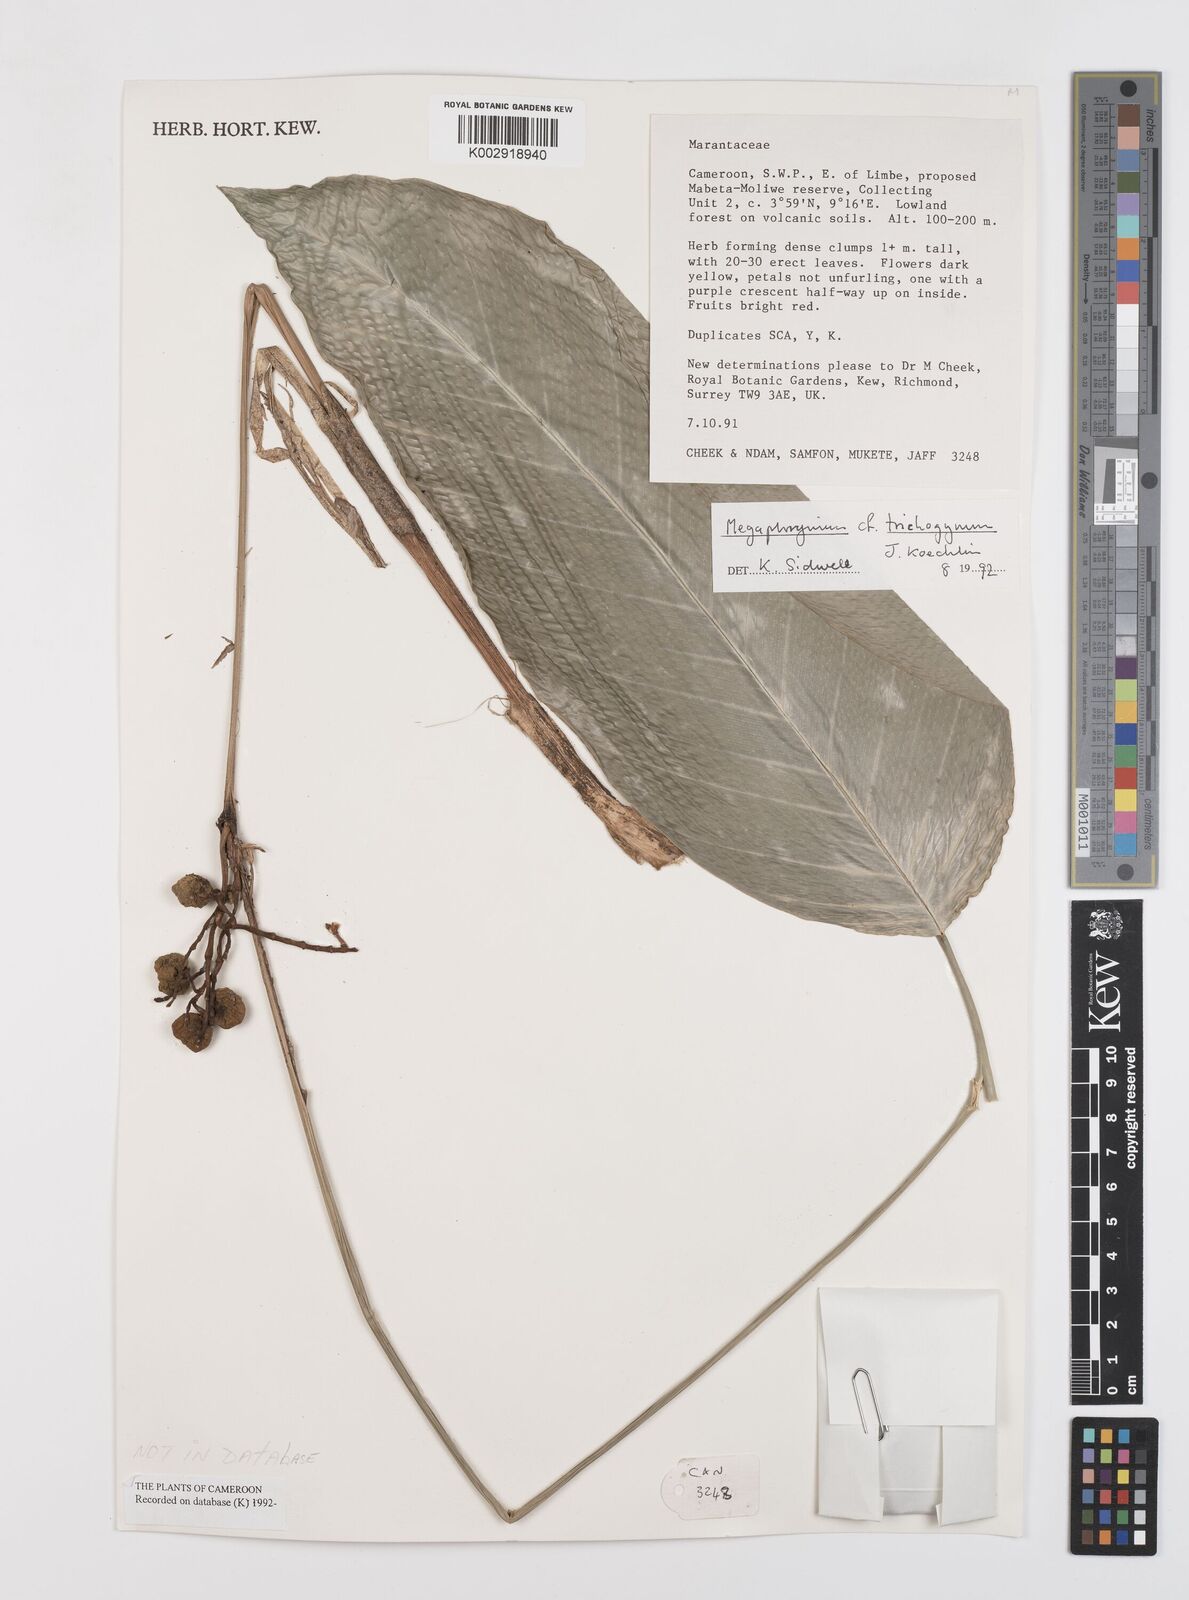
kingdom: Plantae
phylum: Tracheophyta
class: Liliopsida
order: Zingiberales
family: Marantaceae
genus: Megaphrynium
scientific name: Megaphrynium trichogynum
